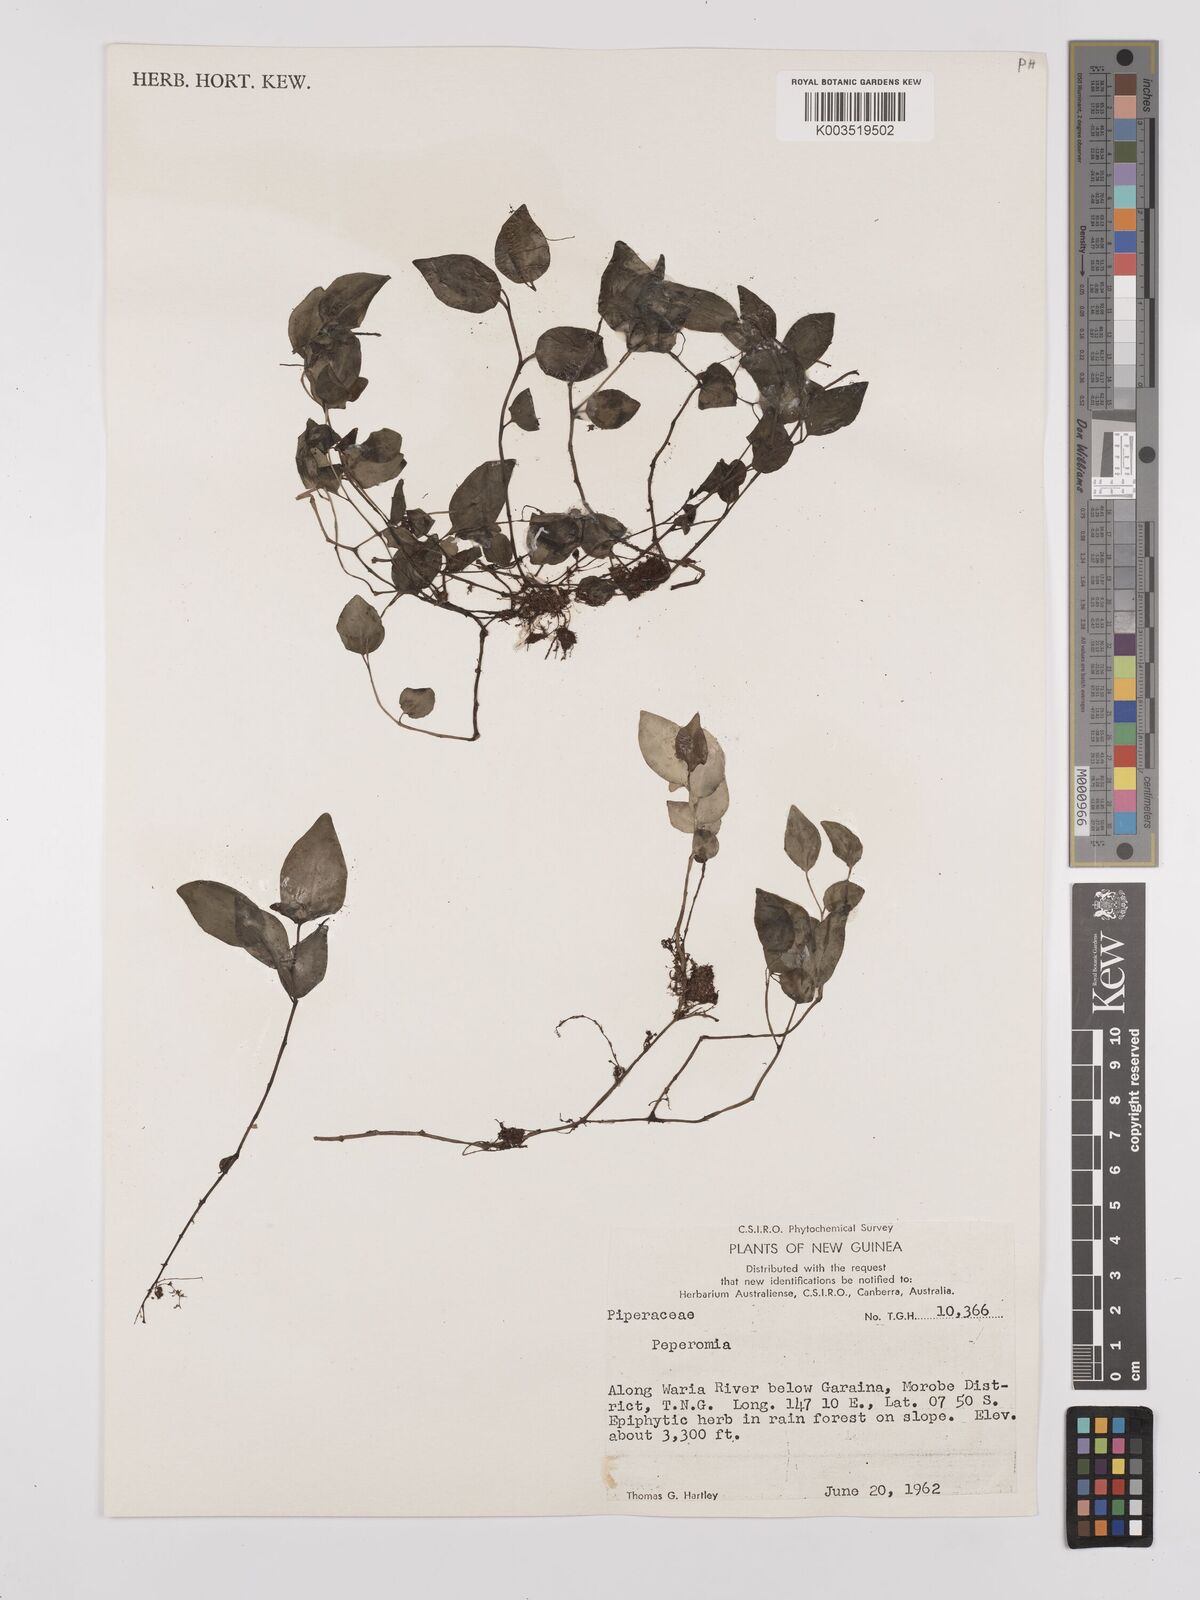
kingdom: Plantae
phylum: Tracheophyta
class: Magnoliopsida
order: Piperales
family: Piperaceae
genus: Peperomia
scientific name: Peperomia
